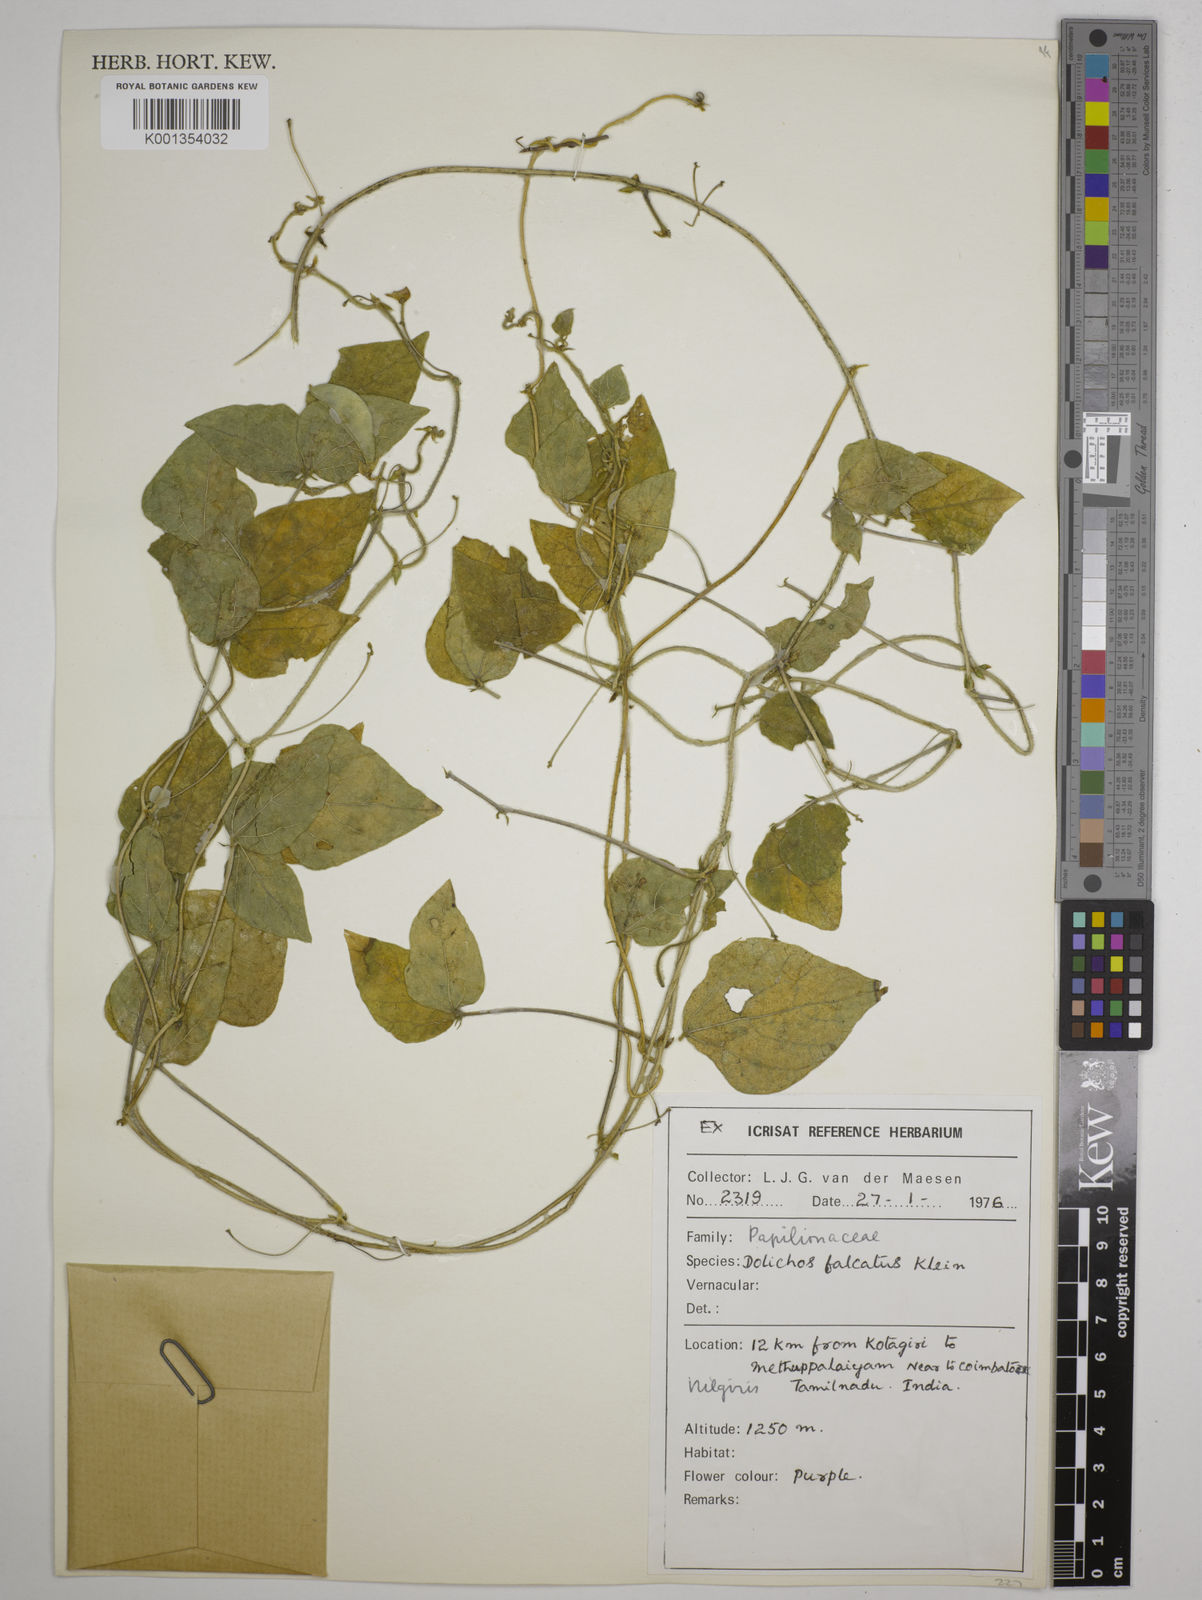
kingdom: Plantae
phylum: Tracheophyta
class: Magnoliopsida
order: Fabales
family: Fabaceae
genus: Dolichos
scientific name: Dolichos trilobus
